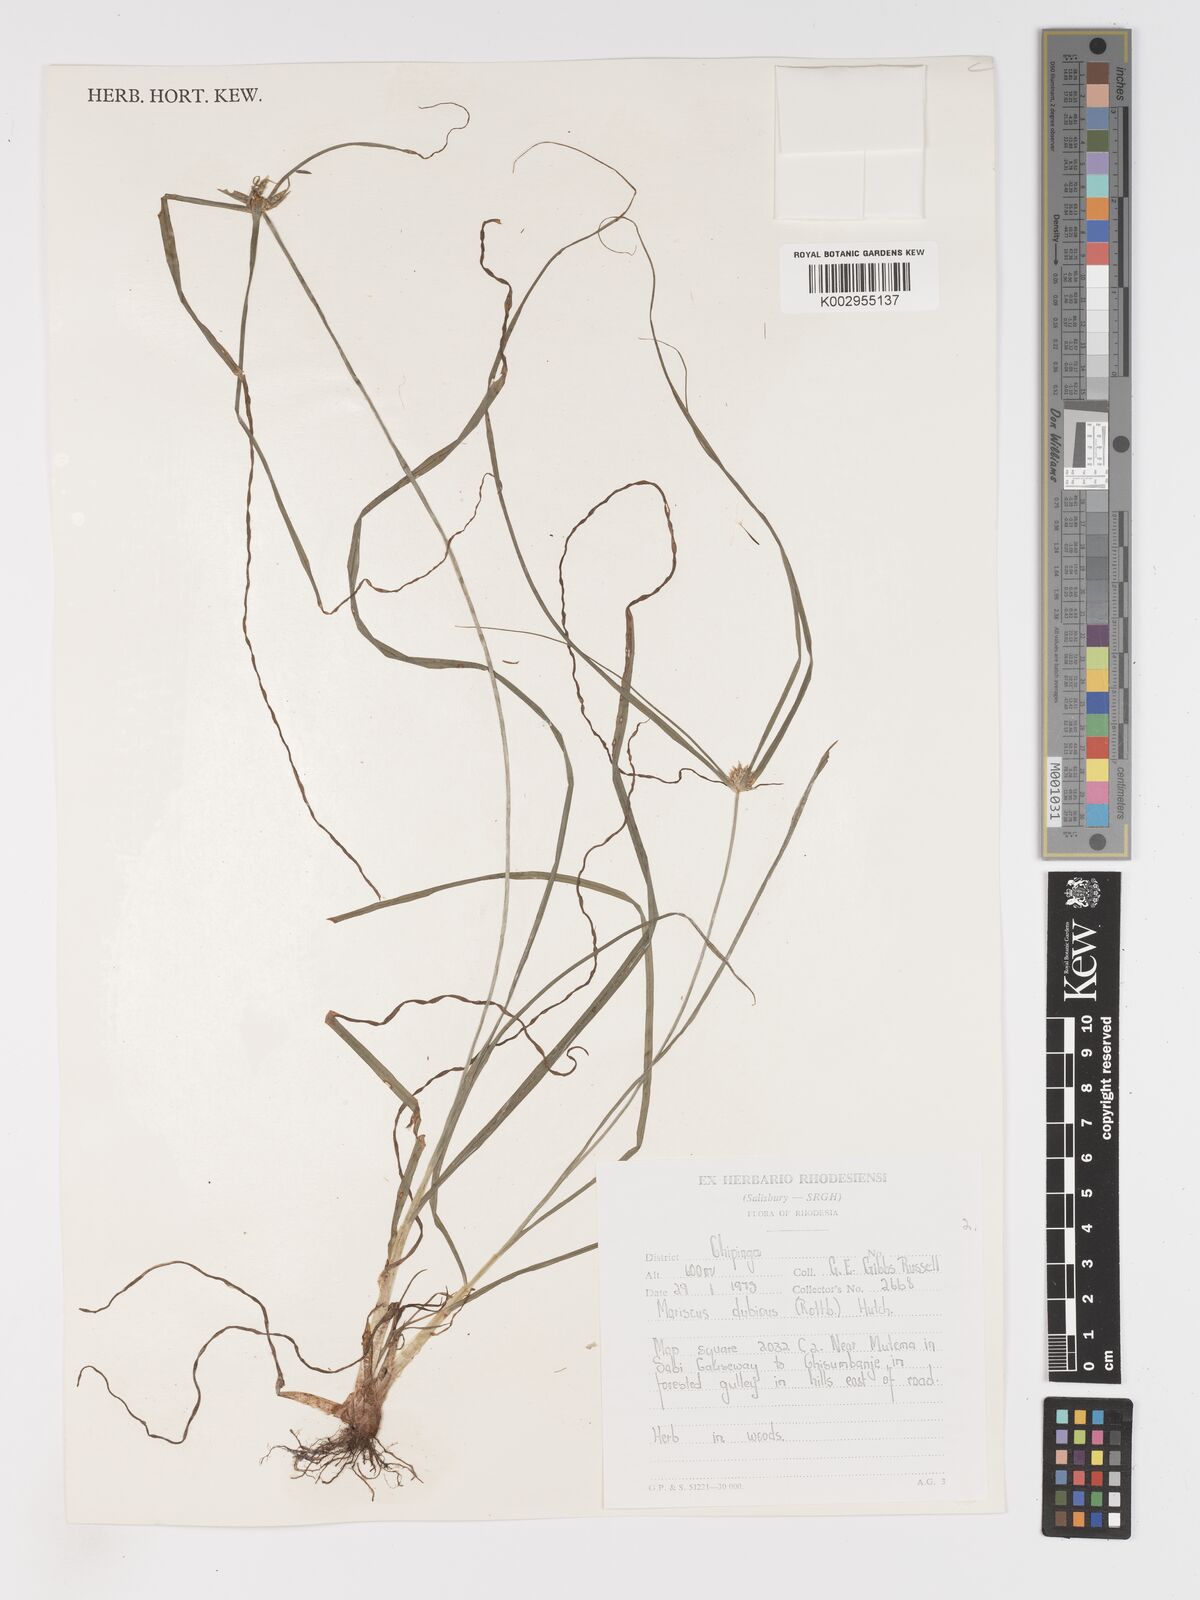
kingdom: Plantae
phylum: Tracheophyta
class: Liliopsida
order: Poales
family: Cyperaceae
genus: Cyperus
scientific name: Cyperus dubius
